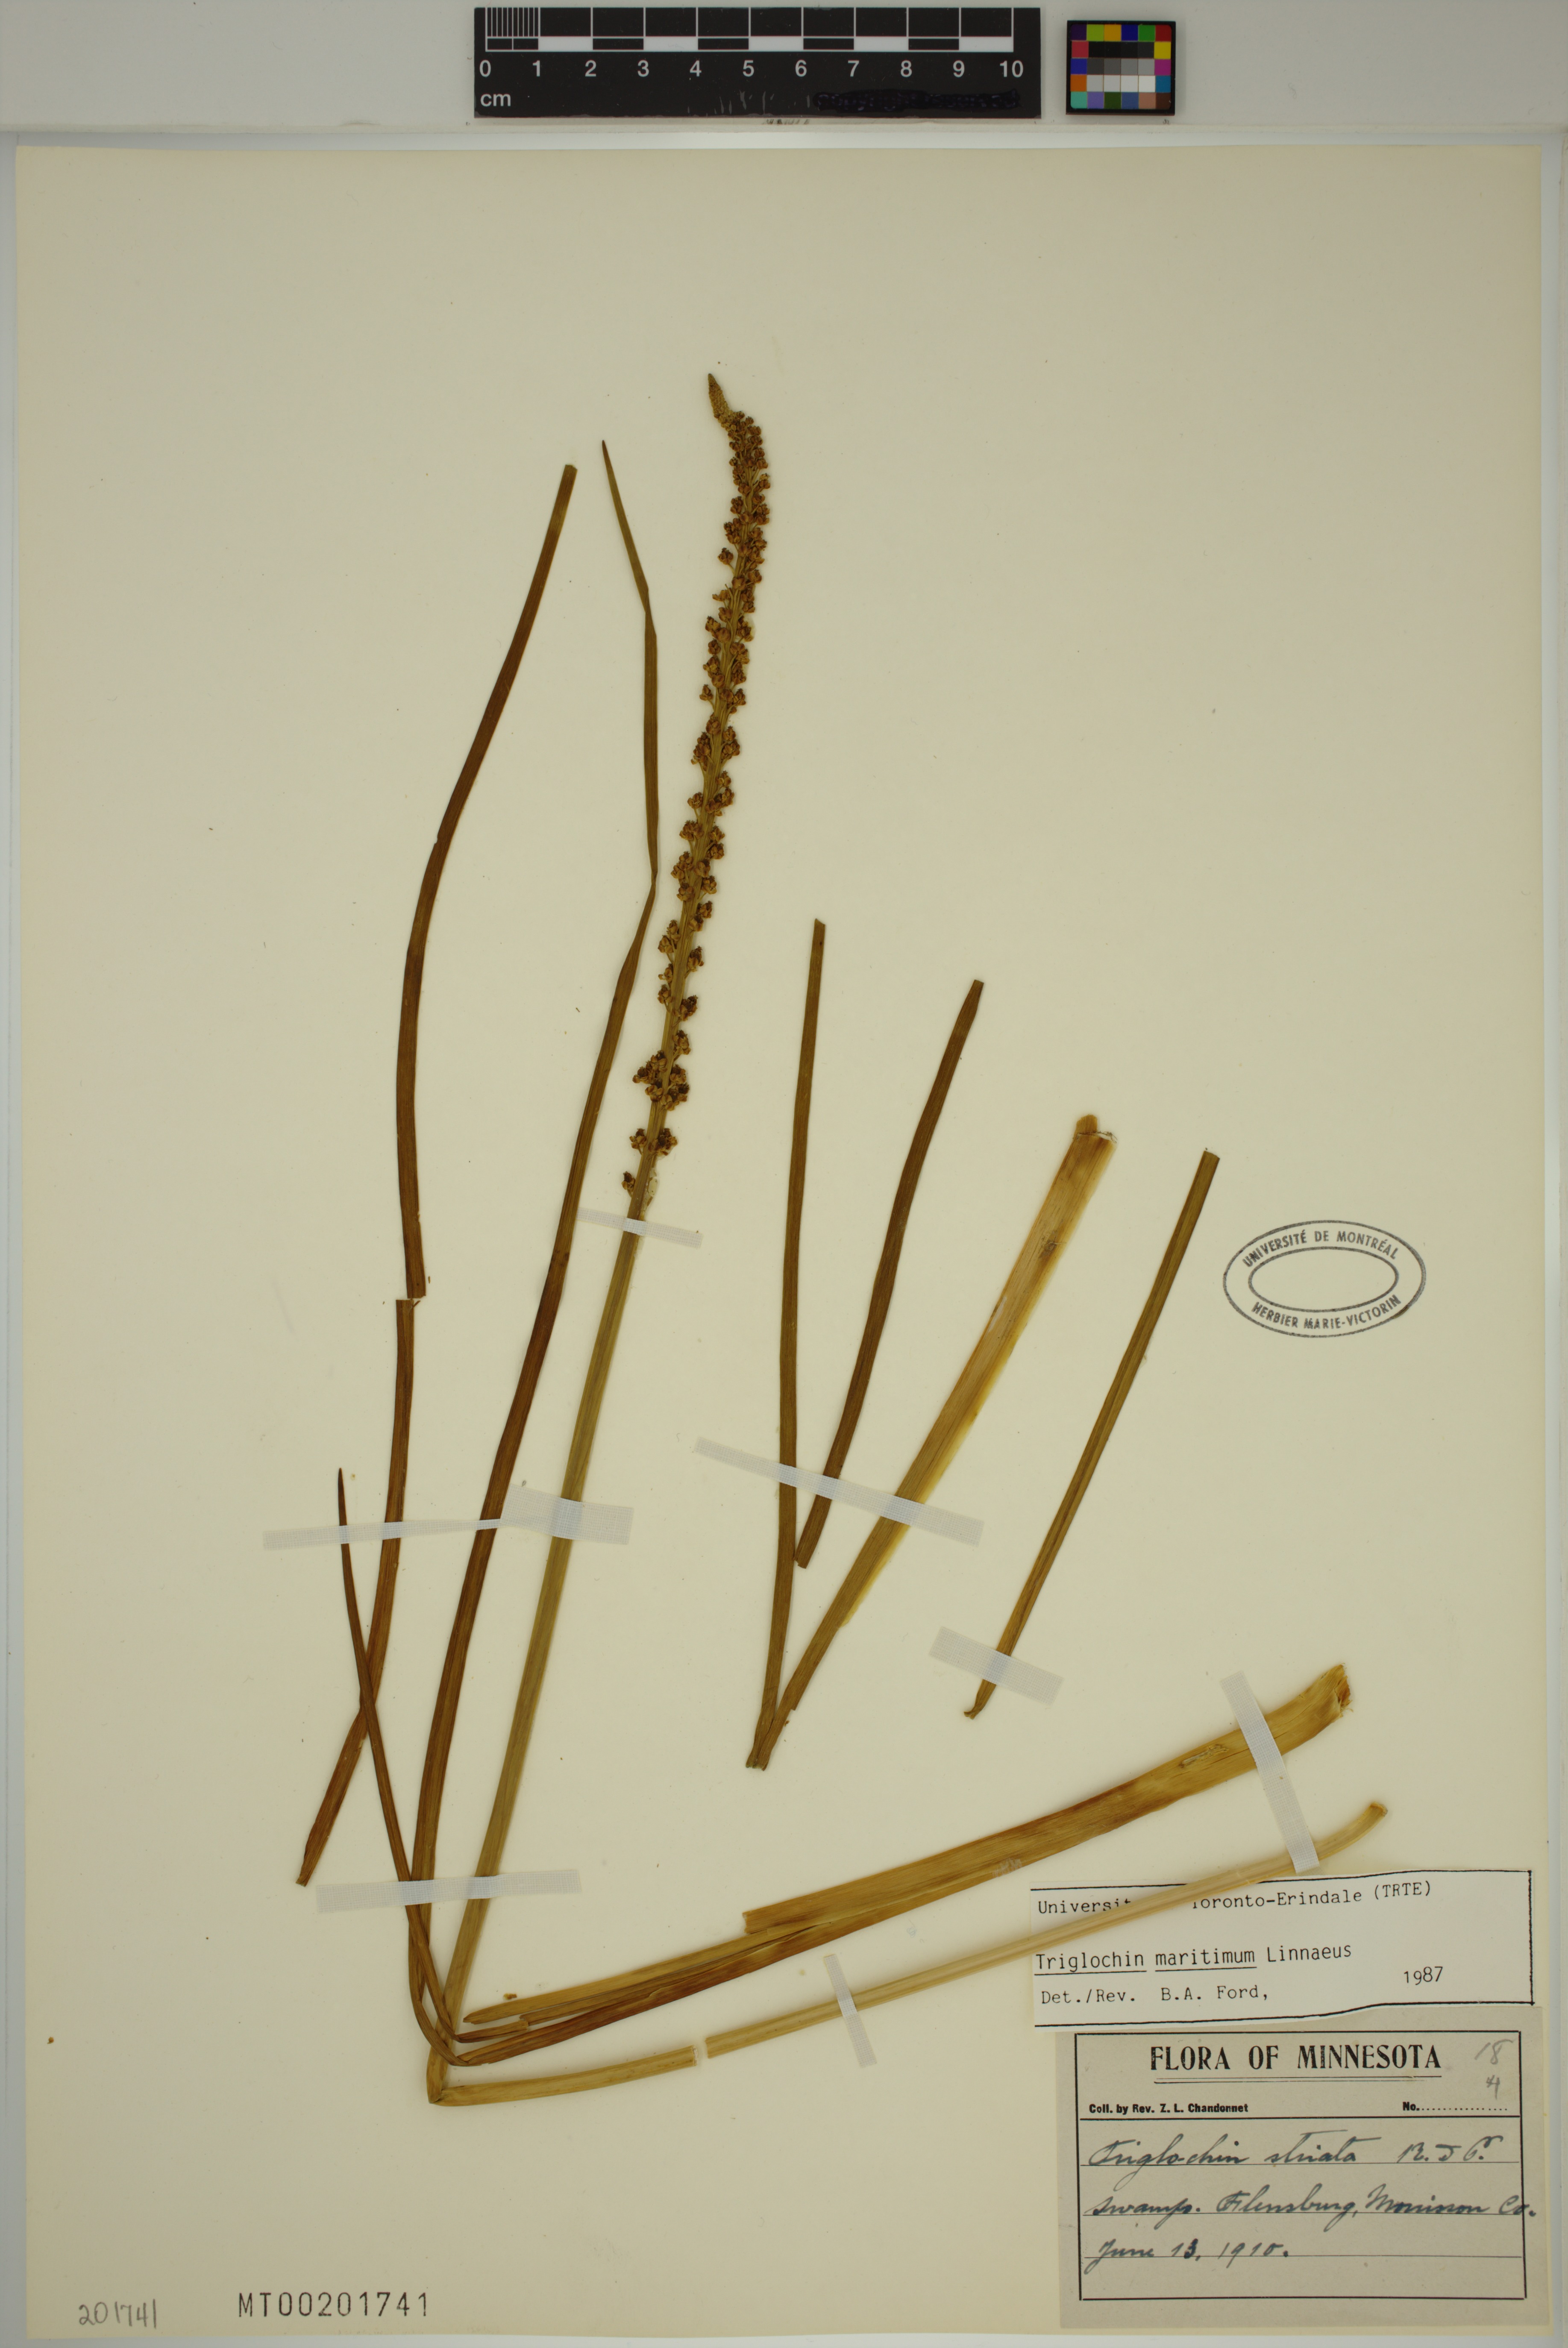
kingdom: Plantae
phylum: Tracheophyta
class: Liliopsida
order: Alismatales
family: Juncaginaceae
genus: Triglochin
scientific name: Triglochin maritima
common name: Sea arrowgrass
